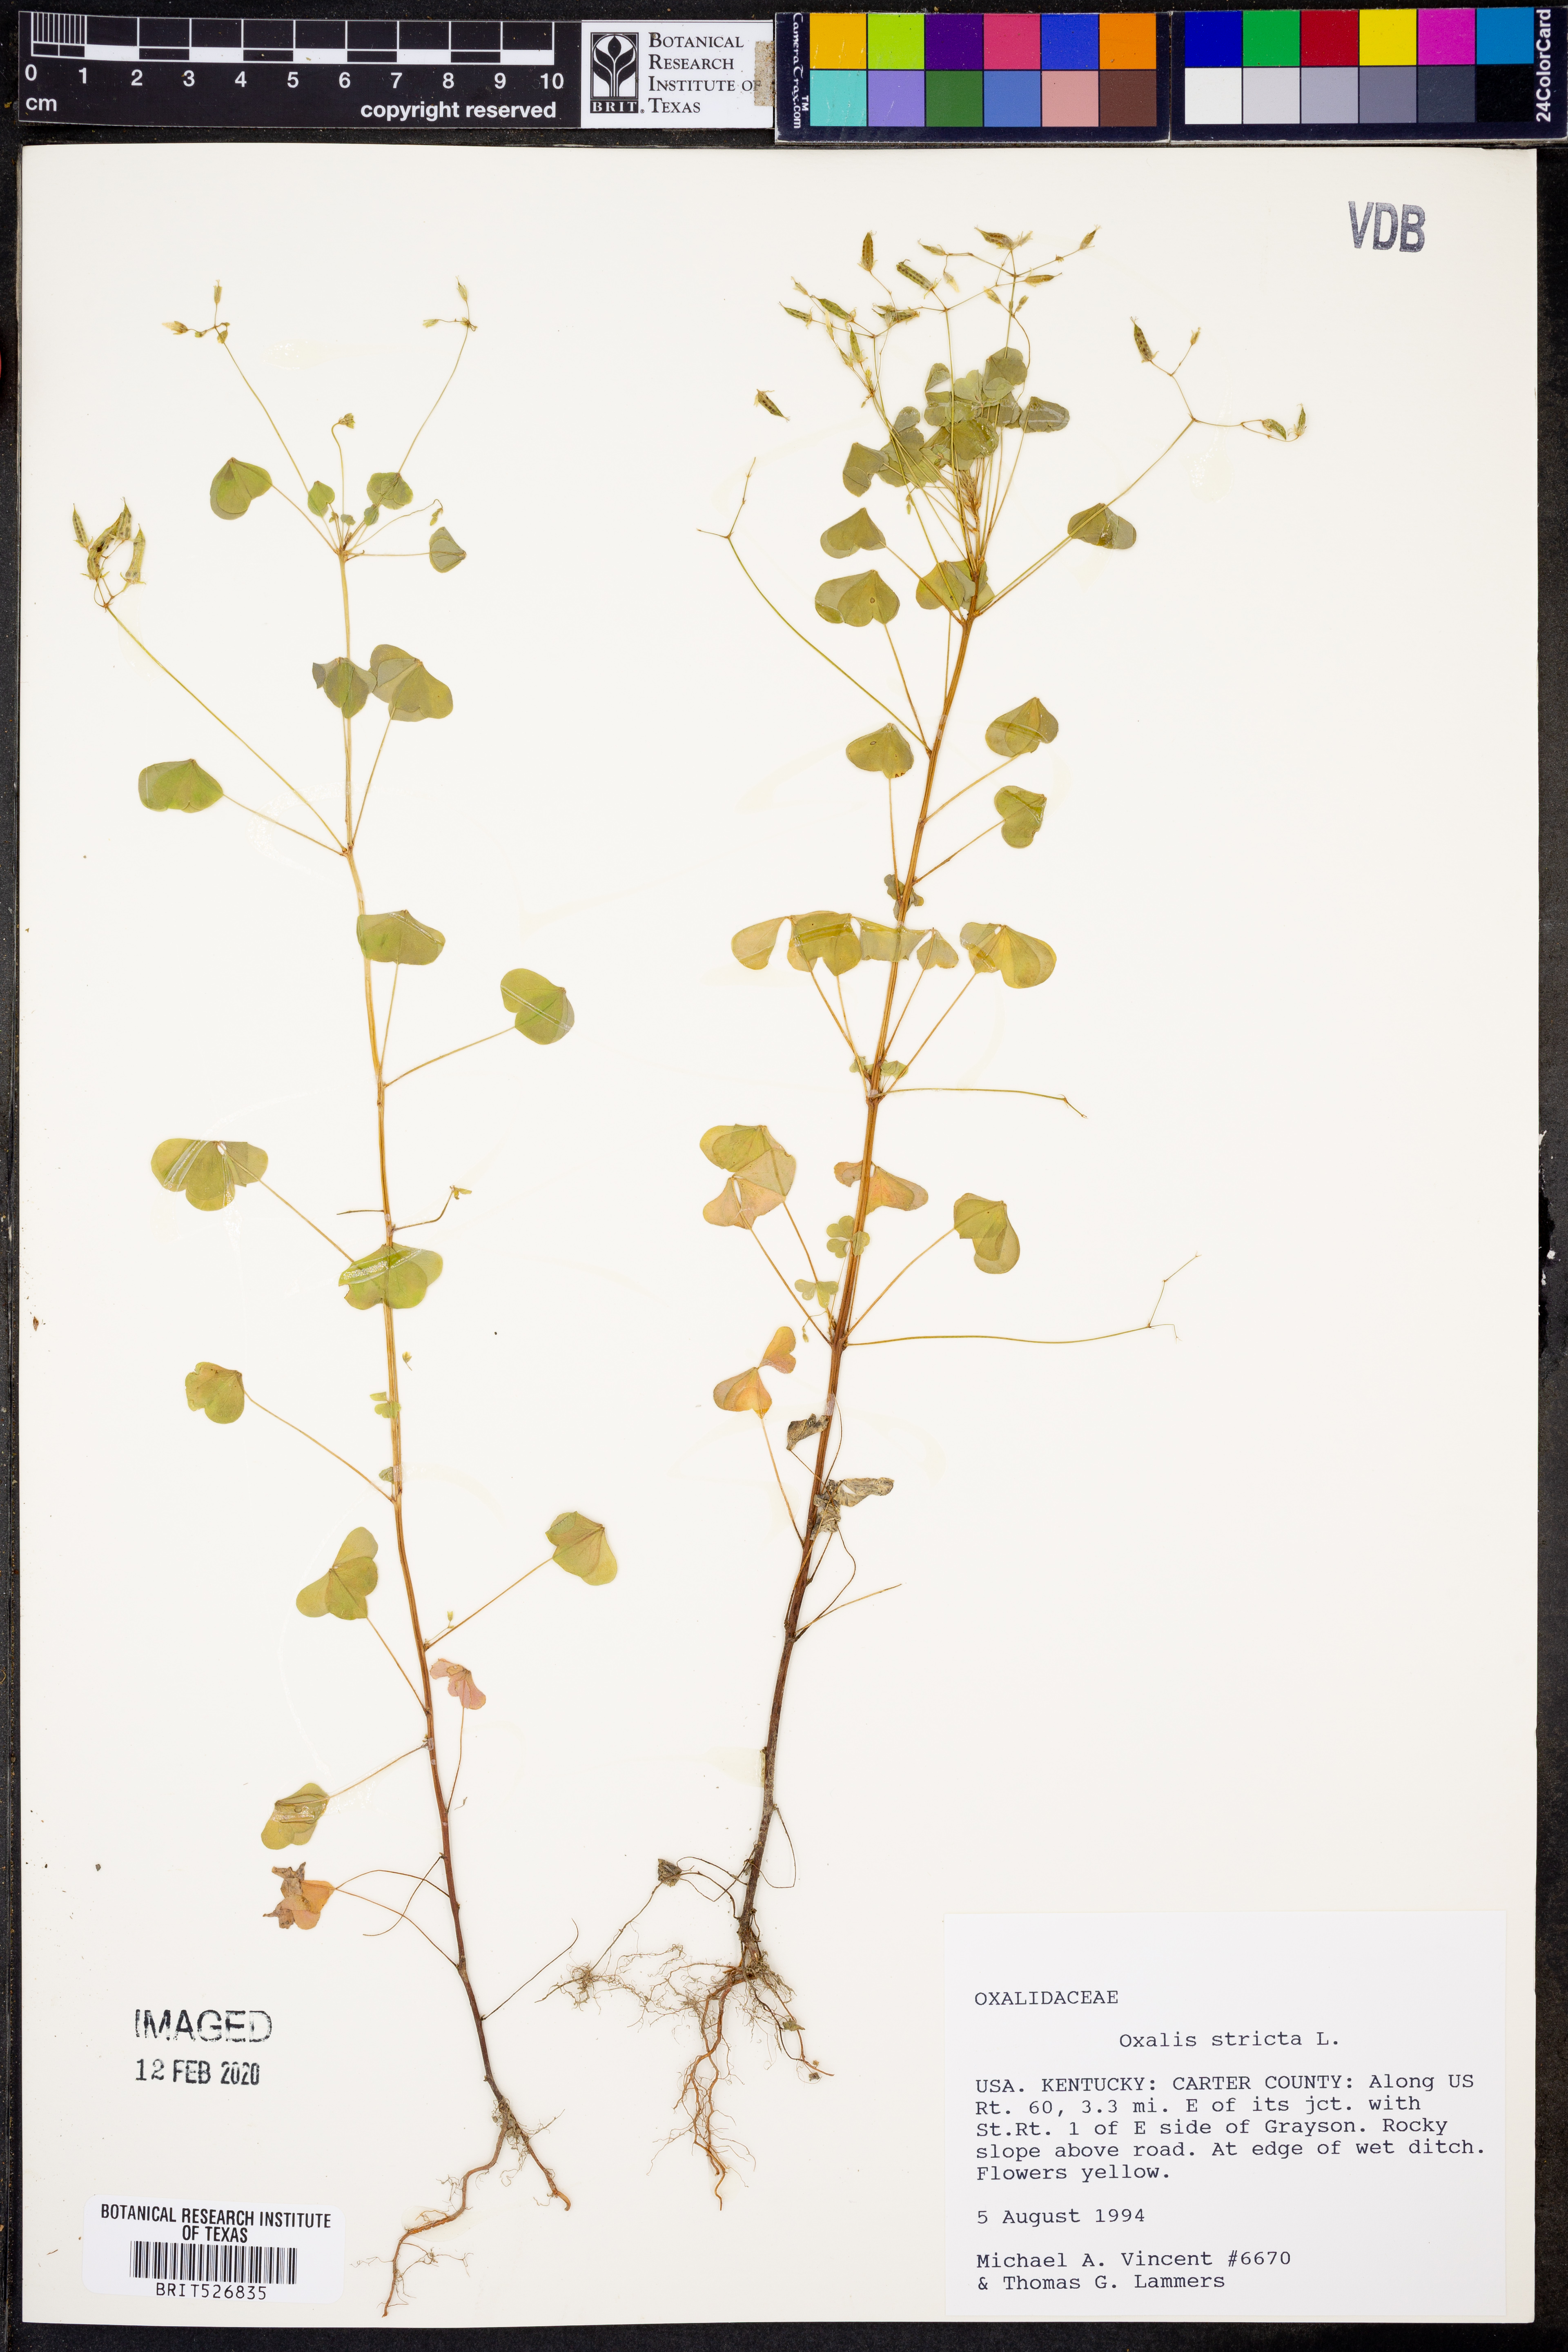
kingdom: Plantae
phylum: Tracheophyta
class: Magnoliopsida
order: Oxalidales
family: Oxalidaceae
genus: Oxalis
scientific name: Oxalis stricta
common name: Upright yellow-sorrel
